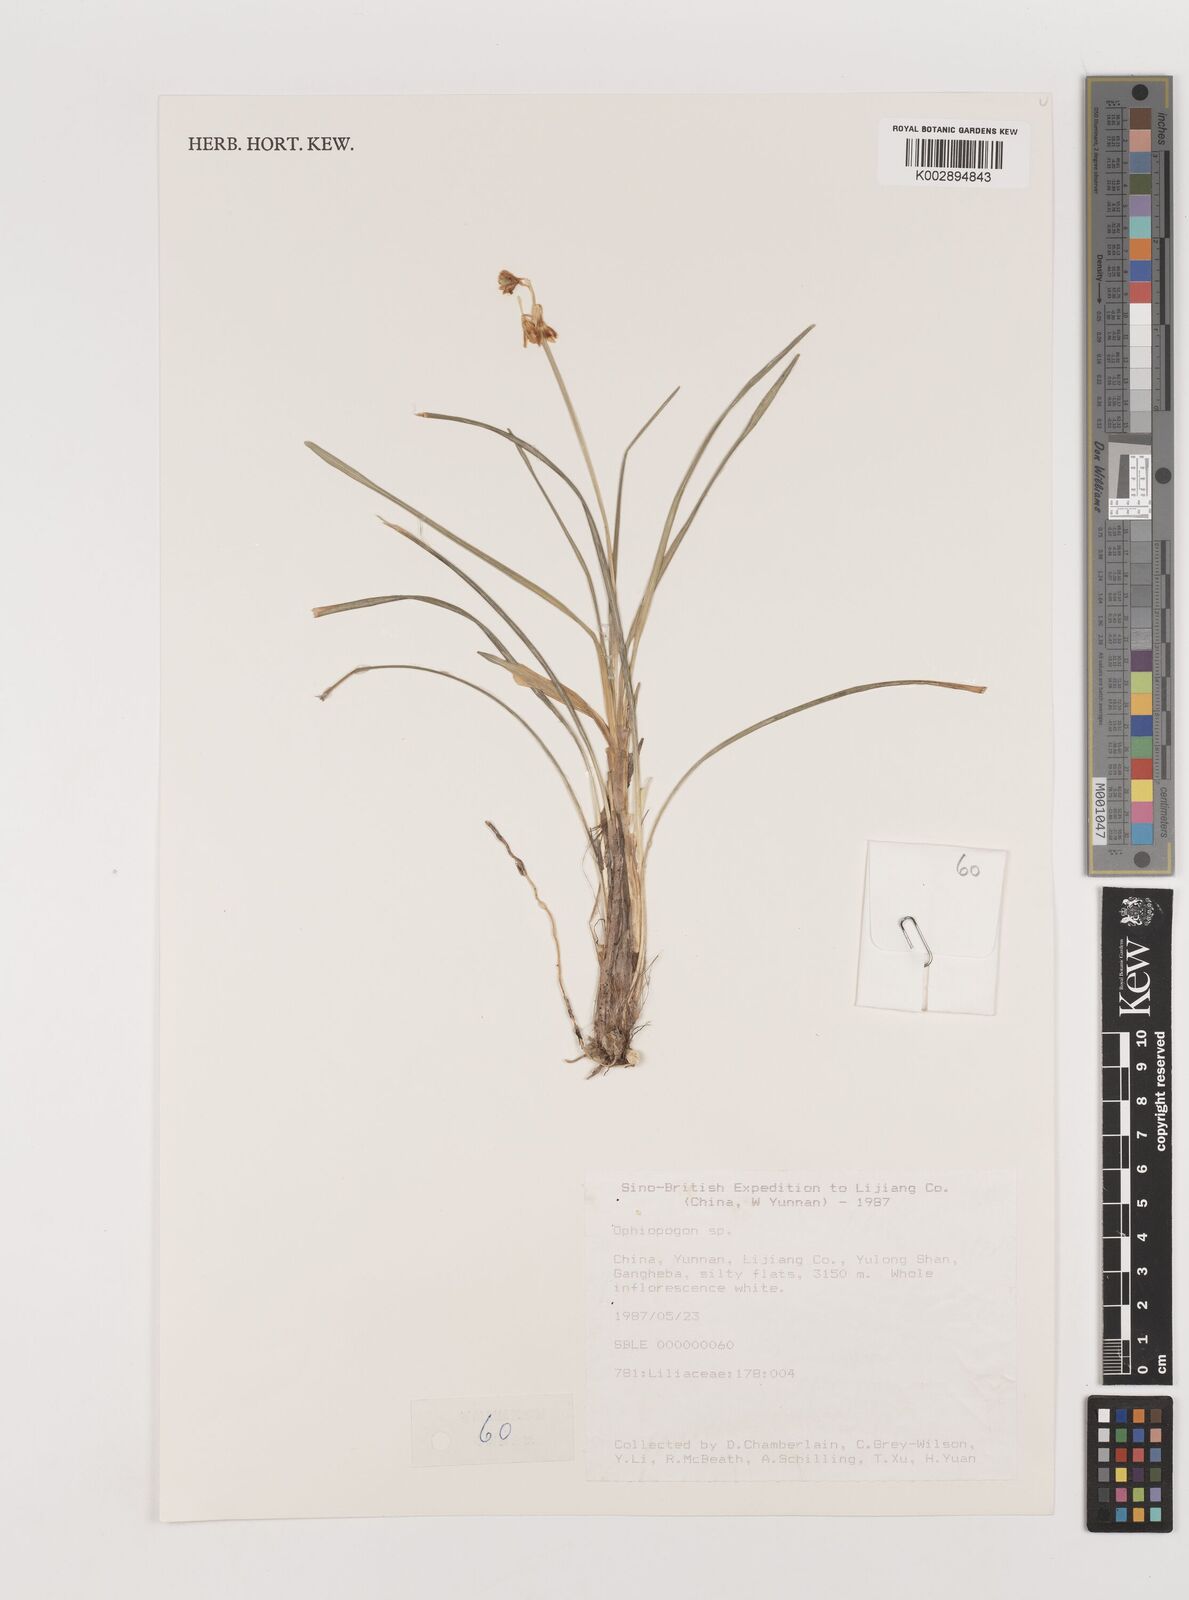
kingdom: Plantae
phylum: Tracheophyta
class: Liliopsida
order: Asparagales
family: Asparagaceae
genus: Ophiopogon
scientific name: Ophiopogon
